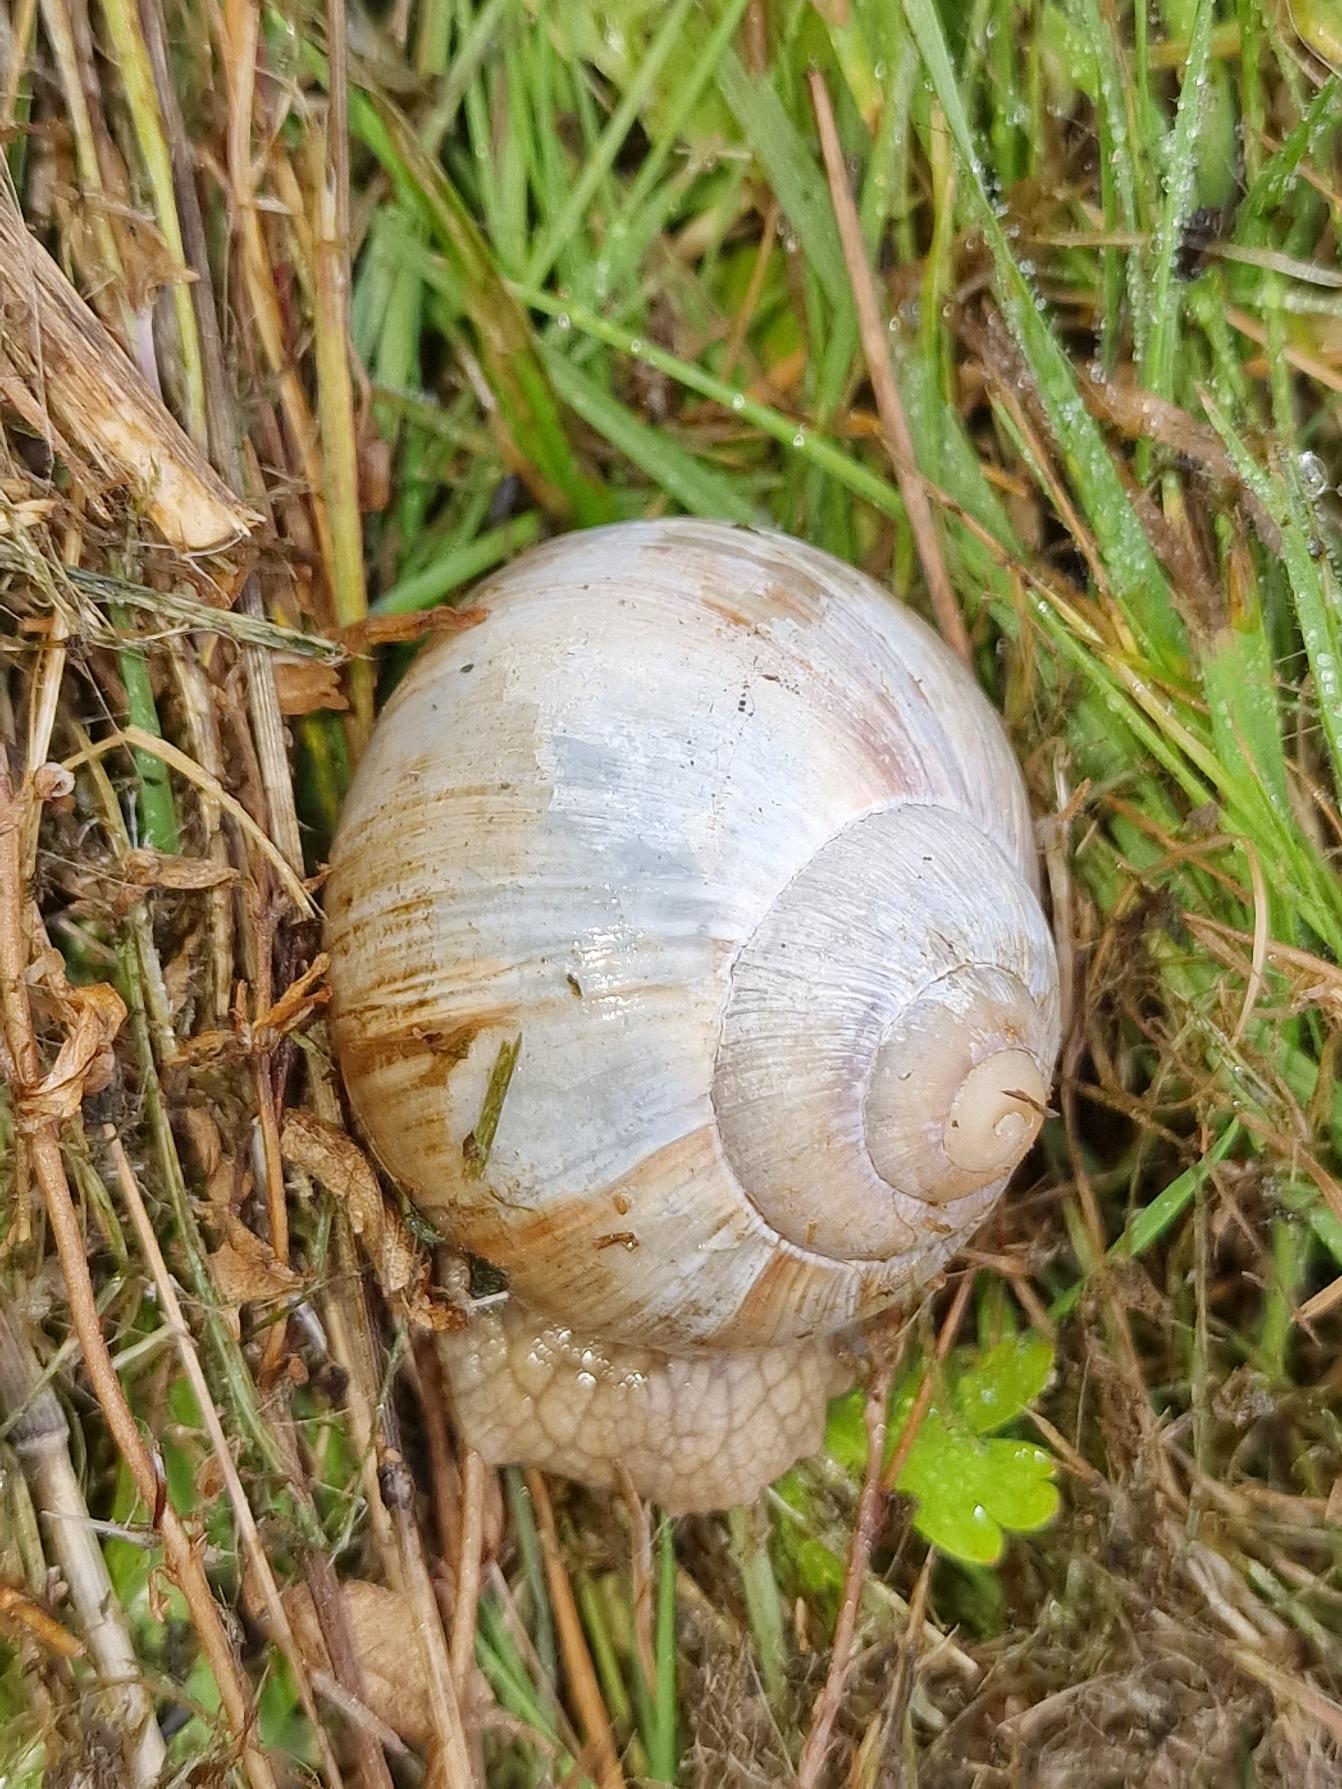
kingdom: Animalia
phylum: Mollusca
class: Gastropoda
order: Stylommatophora
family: Helicidae
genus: Helix
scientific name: Helix pomatia
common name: Vinbjergsnegl
